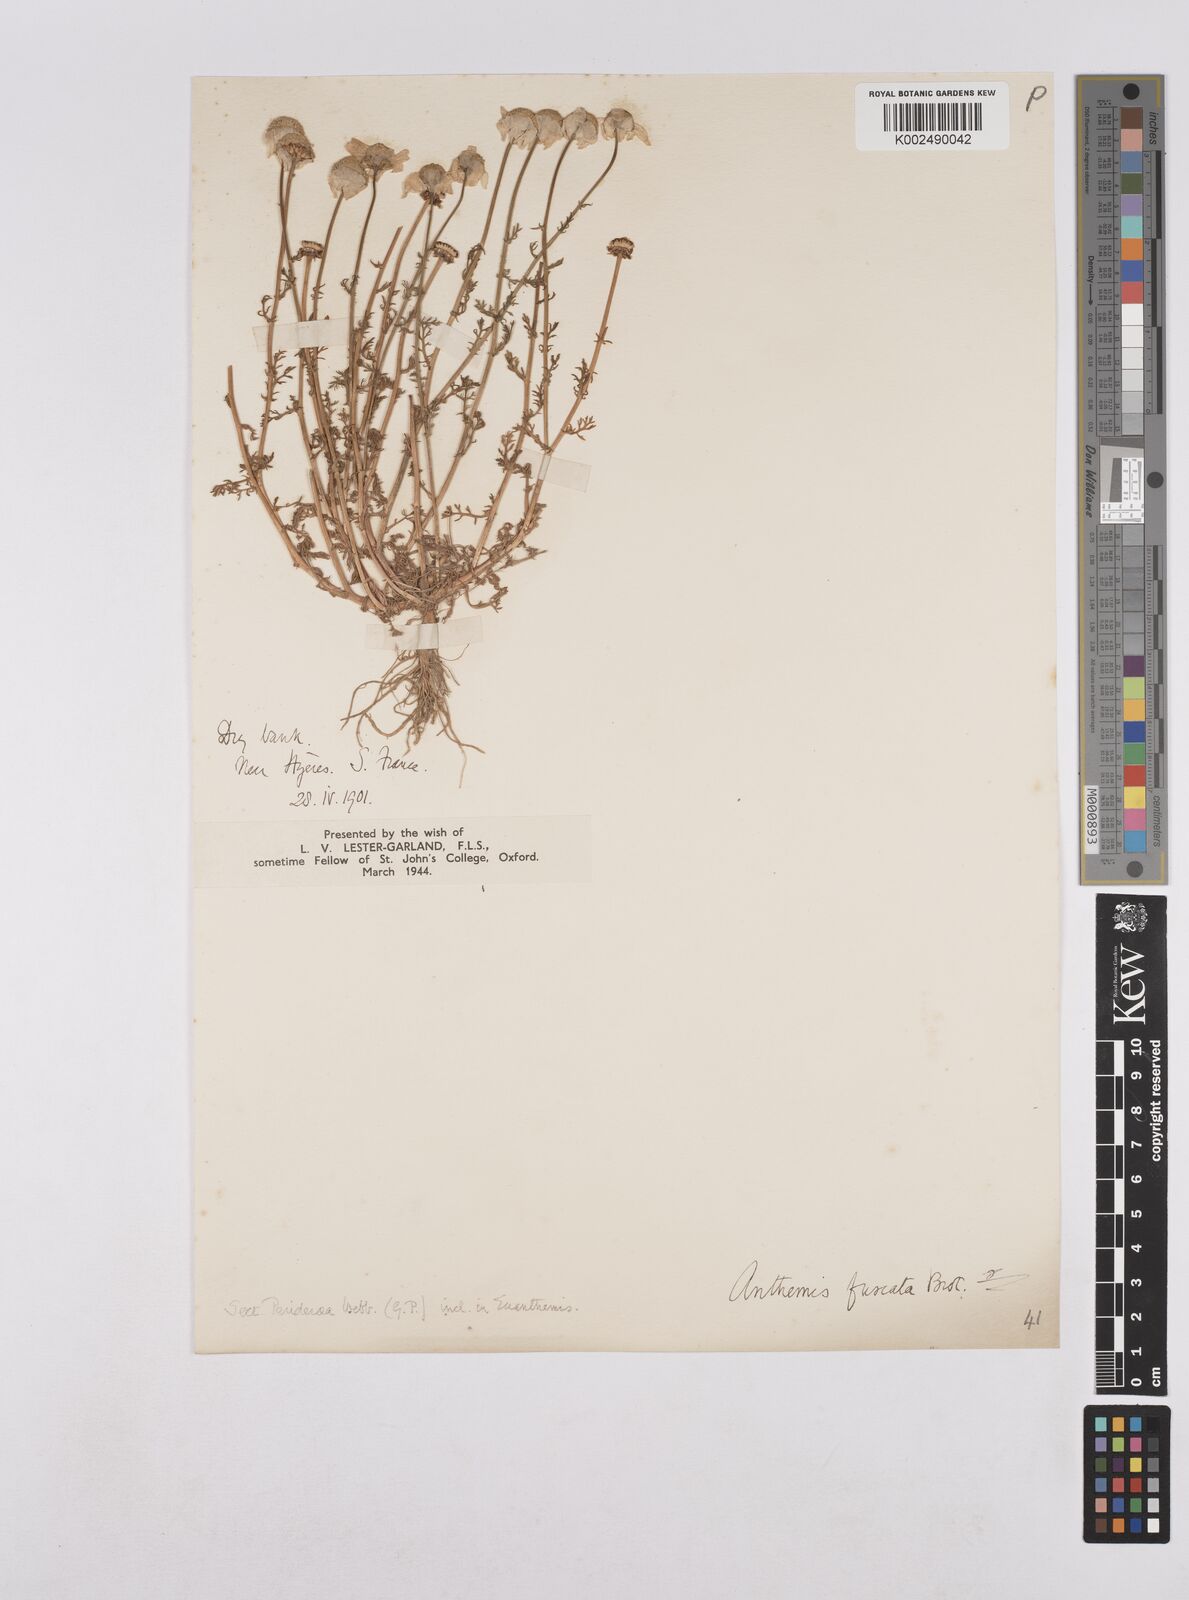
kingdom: Plantae
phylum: Tracheophyta
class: Magnoliopsida
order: Asterales
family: Asteraceae
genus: Chamaemelum
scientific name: Chamaemelum fuscatum
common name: Chamomile
